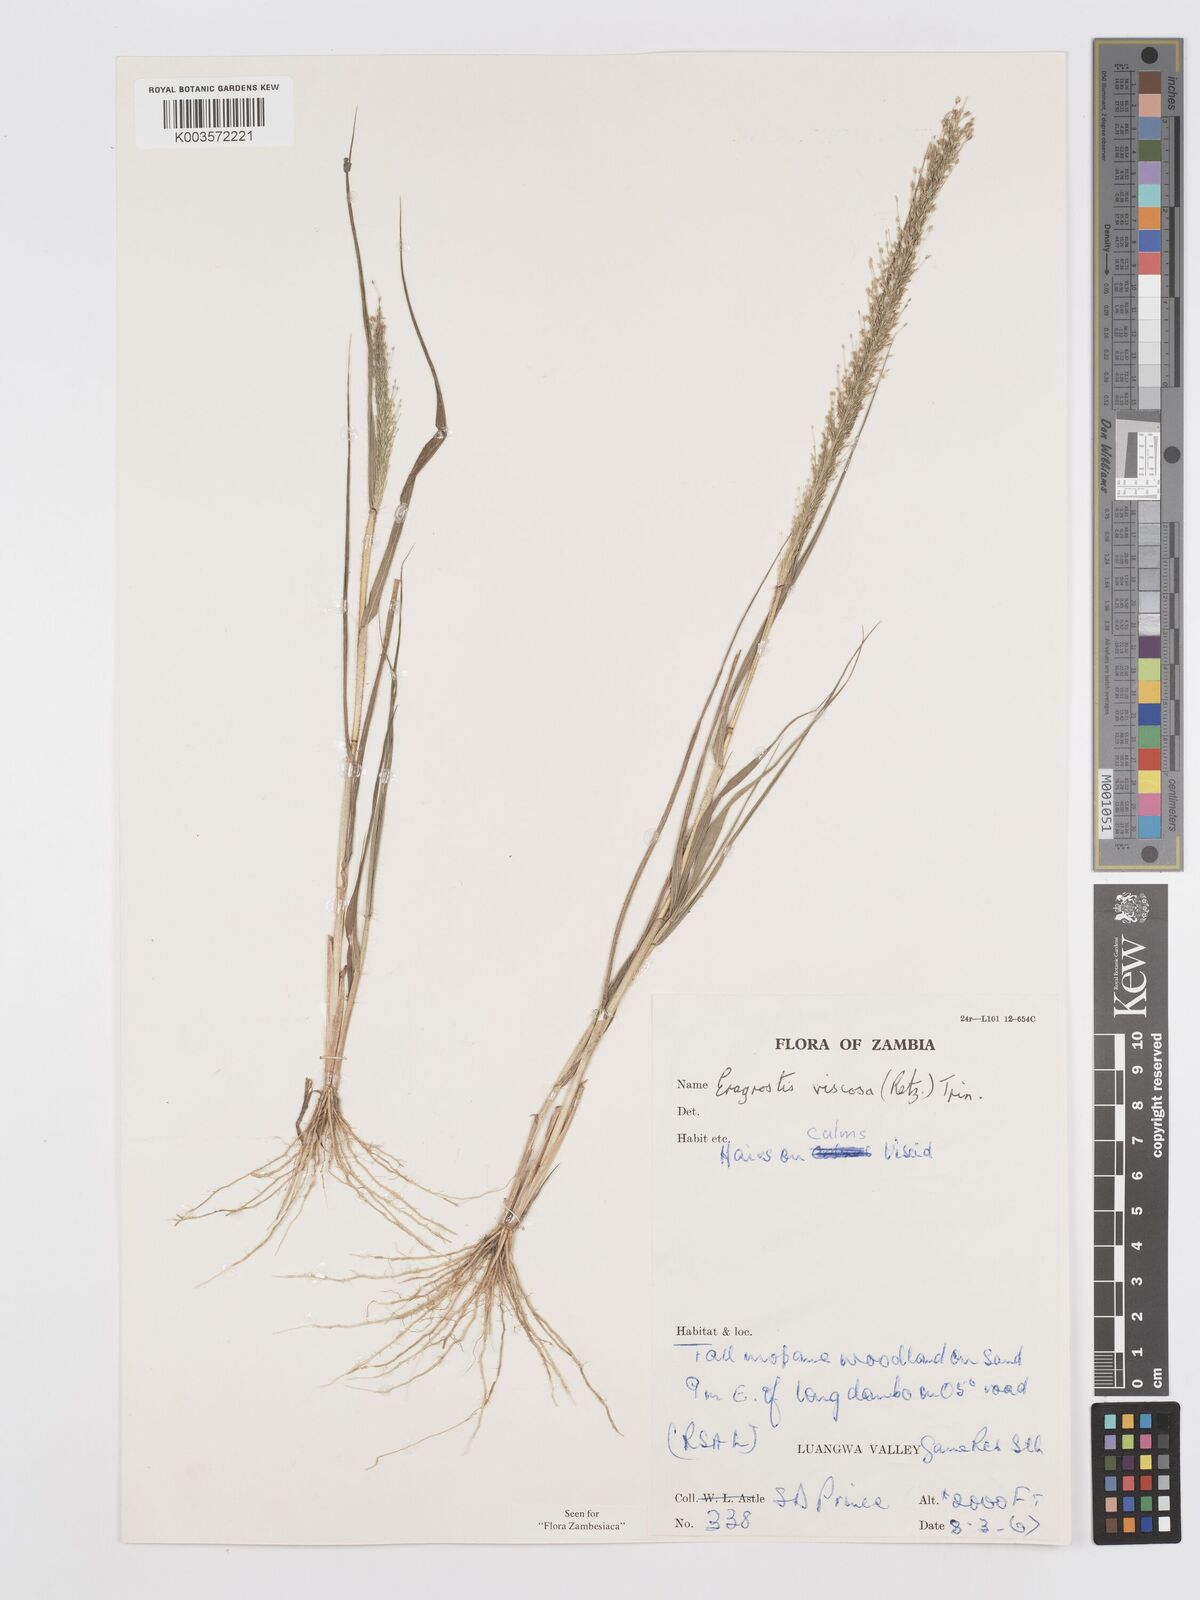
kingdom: Plantae
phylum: Tracheophyta
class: Liliopsida
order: Poales
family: Poaceae
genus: Eragrostis
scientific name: Eragrostis
